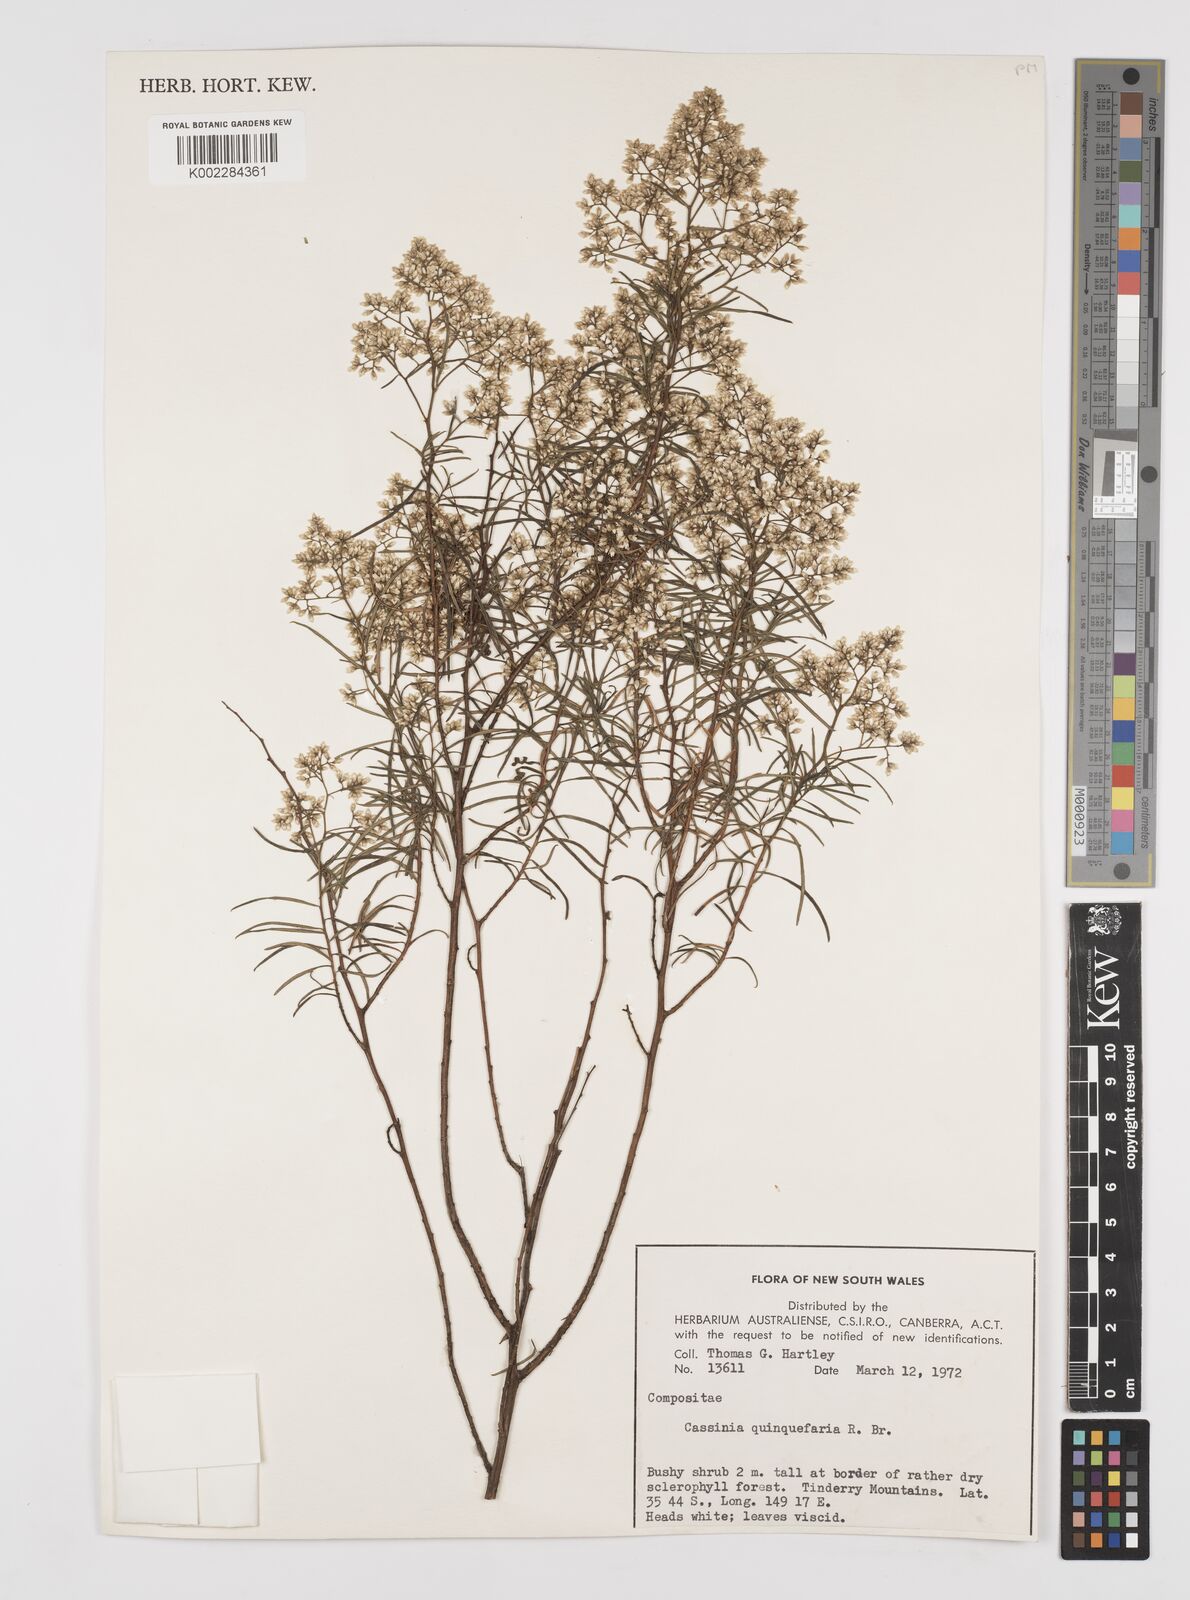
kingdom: Plantae
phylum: Tracheophyta
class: Magnoliopsida
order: Asterales
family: Asteraceae
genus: Cassinia
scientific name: Cassinia quinquefaria
